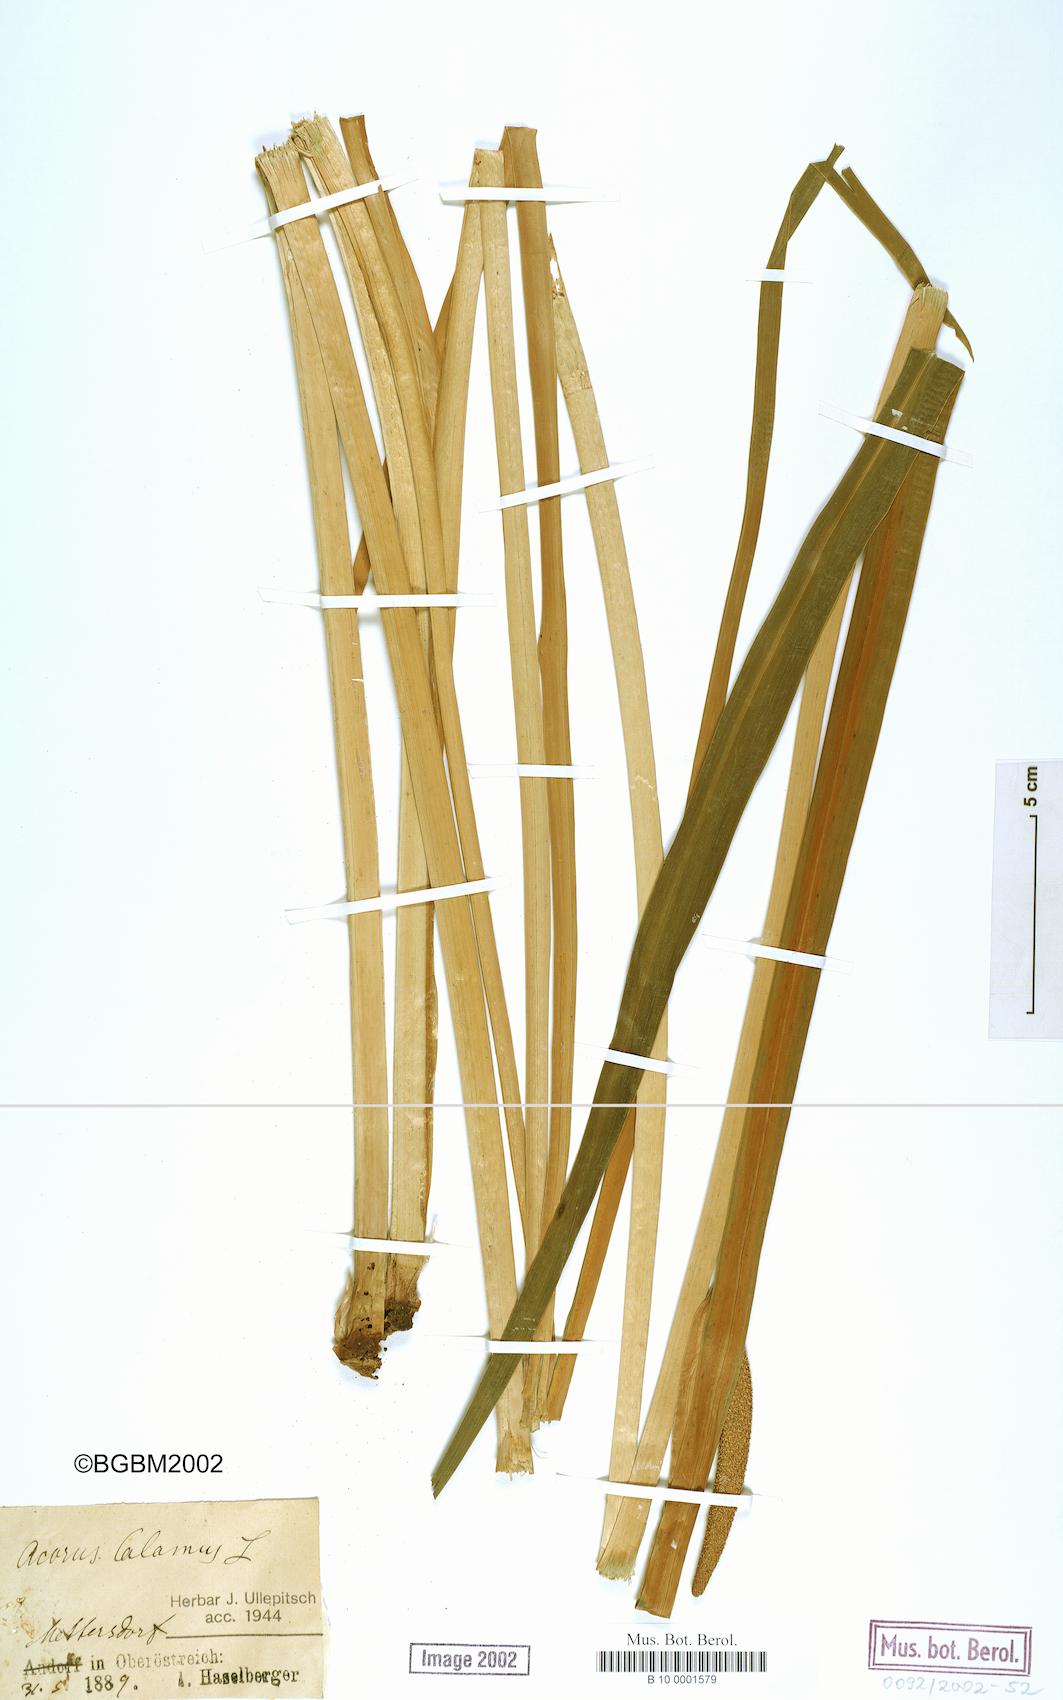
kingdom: Plantae
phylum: Tracheophyta
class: Liliopsida
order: Acorales
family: Acoraceae
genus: Acorus
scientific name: Acorus calamus
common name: Sweet-flag
